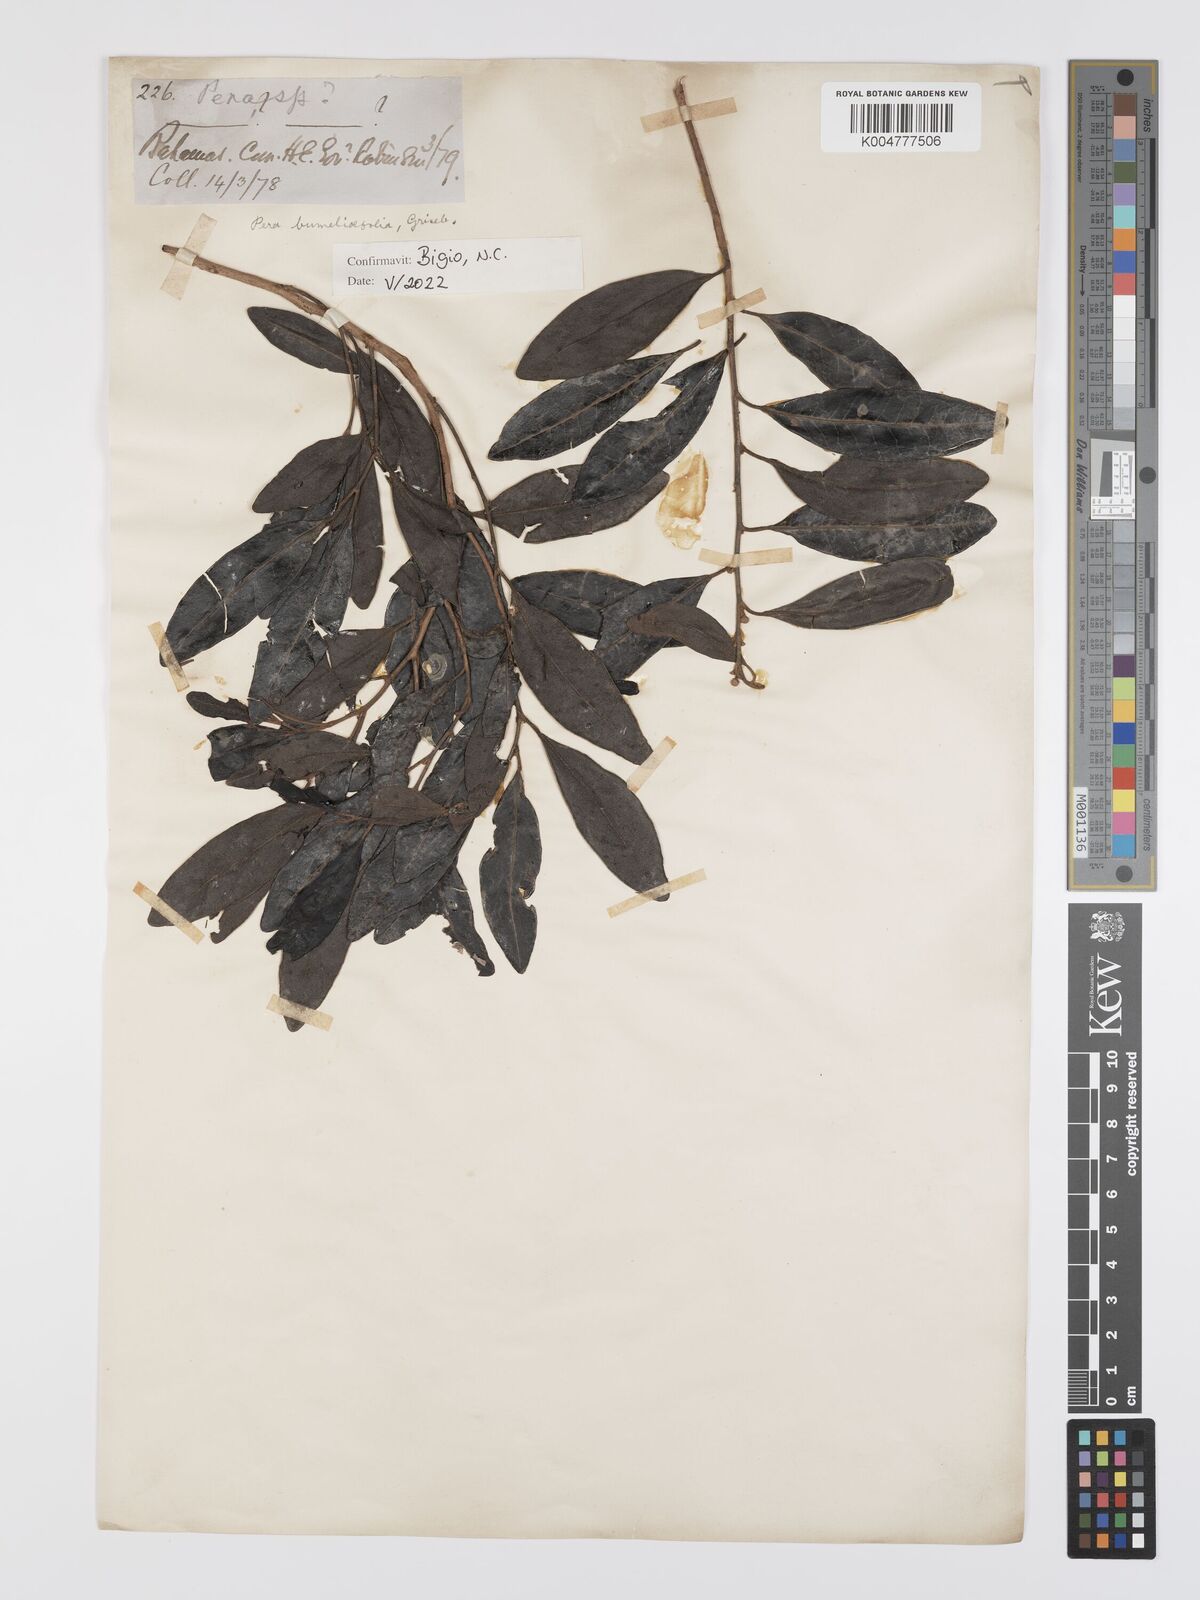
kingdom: Plantae
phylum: Tracheophyta
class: Magnoliopsida
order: Malpighiales
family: Peraceae
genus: Pera
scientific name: Pera
